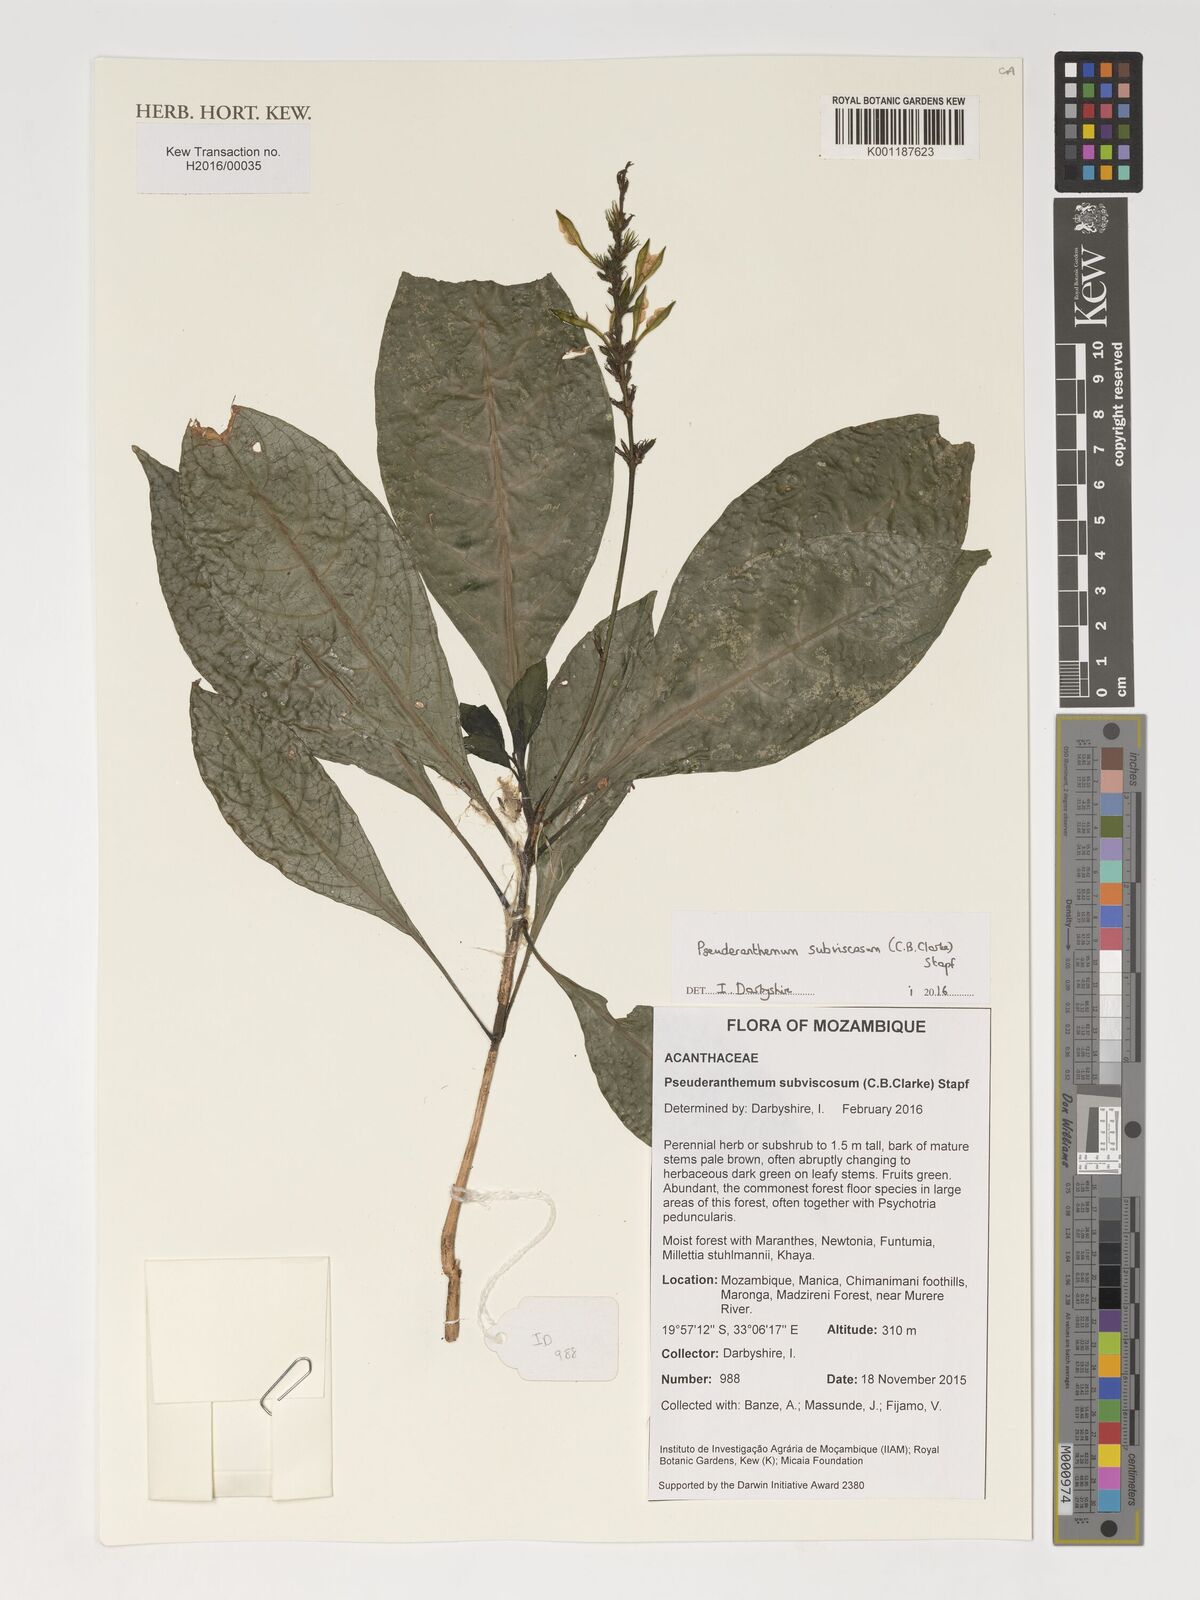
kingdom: Plantae
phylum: Tracheophyta
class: Magnoliopsida
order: Lamiales
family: Acanthaceae
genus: Pseuderanthemum
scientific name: Pseuderanthemum subviscosum
